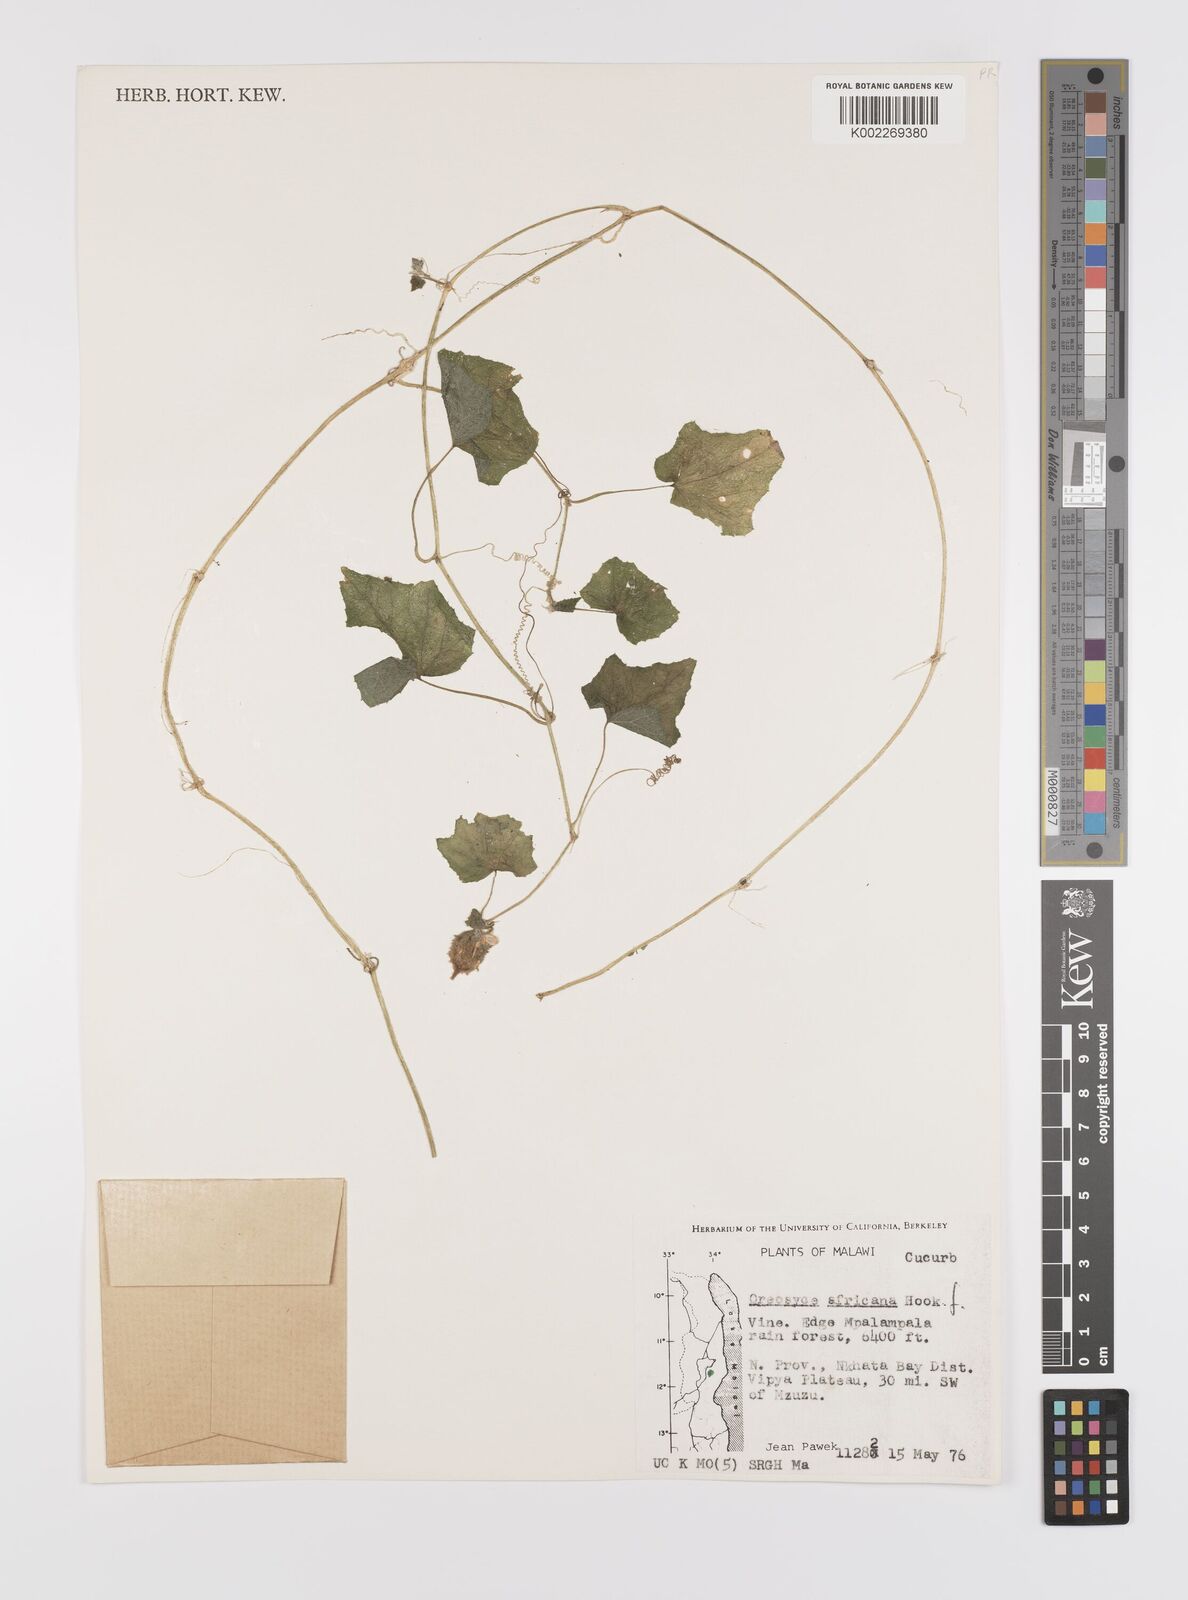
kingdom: Plantae
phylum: Tracheophyta
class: Magnoliopsida
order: Cucurbitales
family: Cucurbitaceae
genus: Cucumis
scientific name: Cucumis oreosyce
